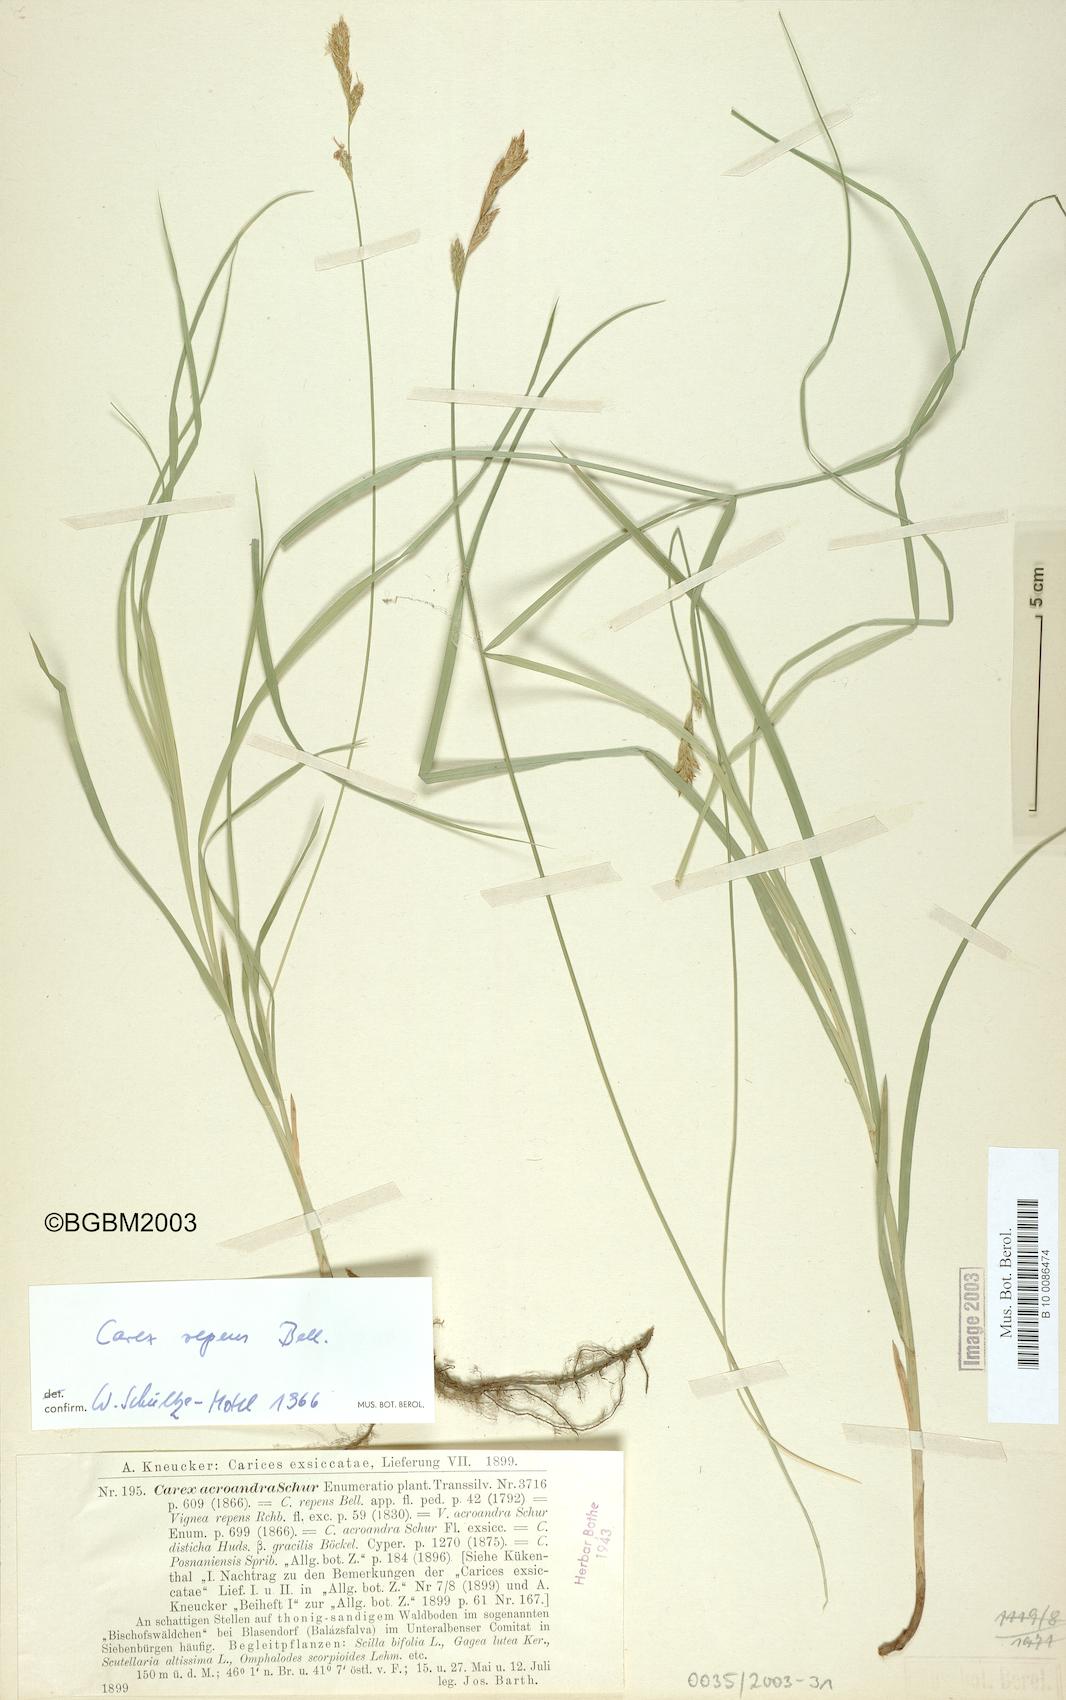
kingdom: Plantae
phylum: Tracheophyta
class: Liliopsida
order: Poales
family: Cyperaceae
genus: Carex
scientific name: Carex repens
